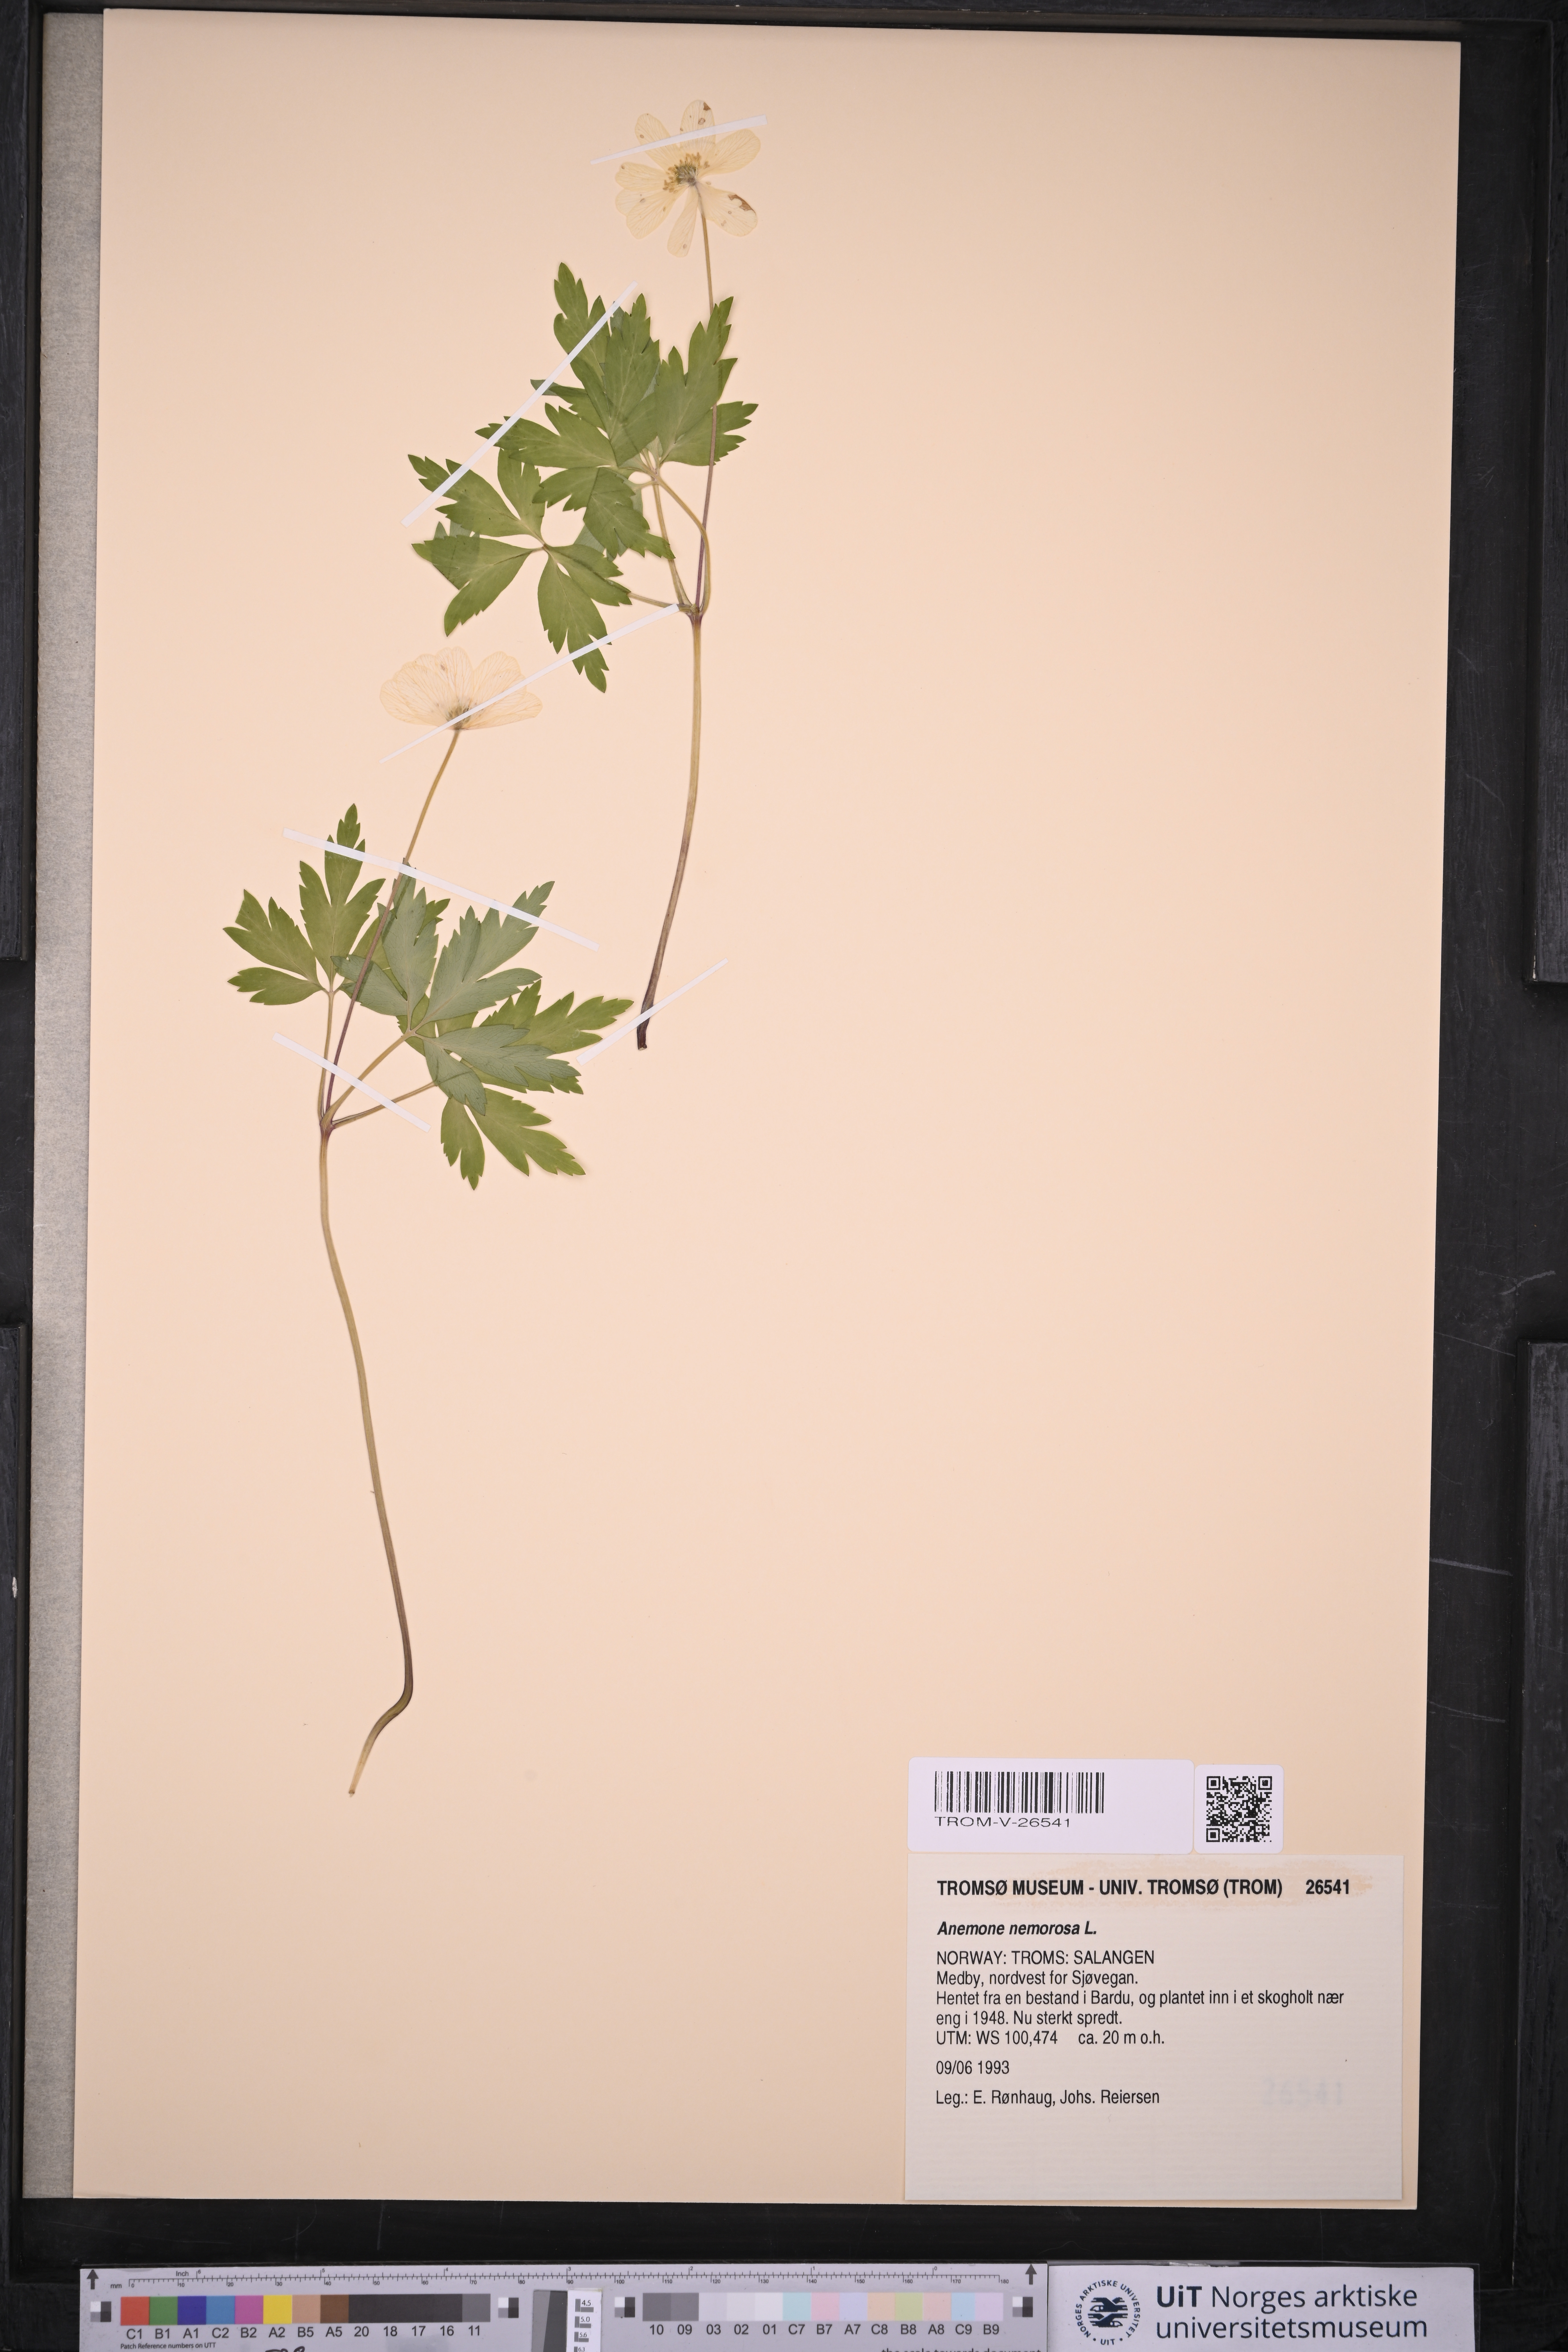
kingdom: Plantae
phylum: Tracheophyta
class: Magnoliopsida
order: Ranunculales
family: Ranunculaceae
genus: Anemone
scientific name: Anemone nemorosa
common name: Wood anemone
